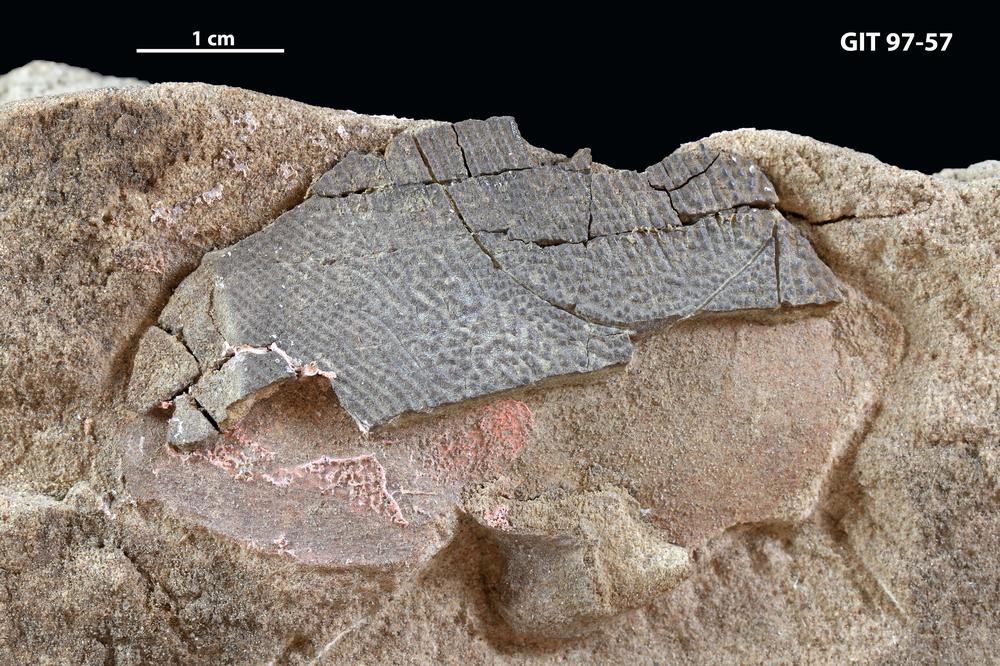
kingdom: Animalia
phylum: Chordata
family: Holonematidae
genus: Holonema
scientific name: Holonema
